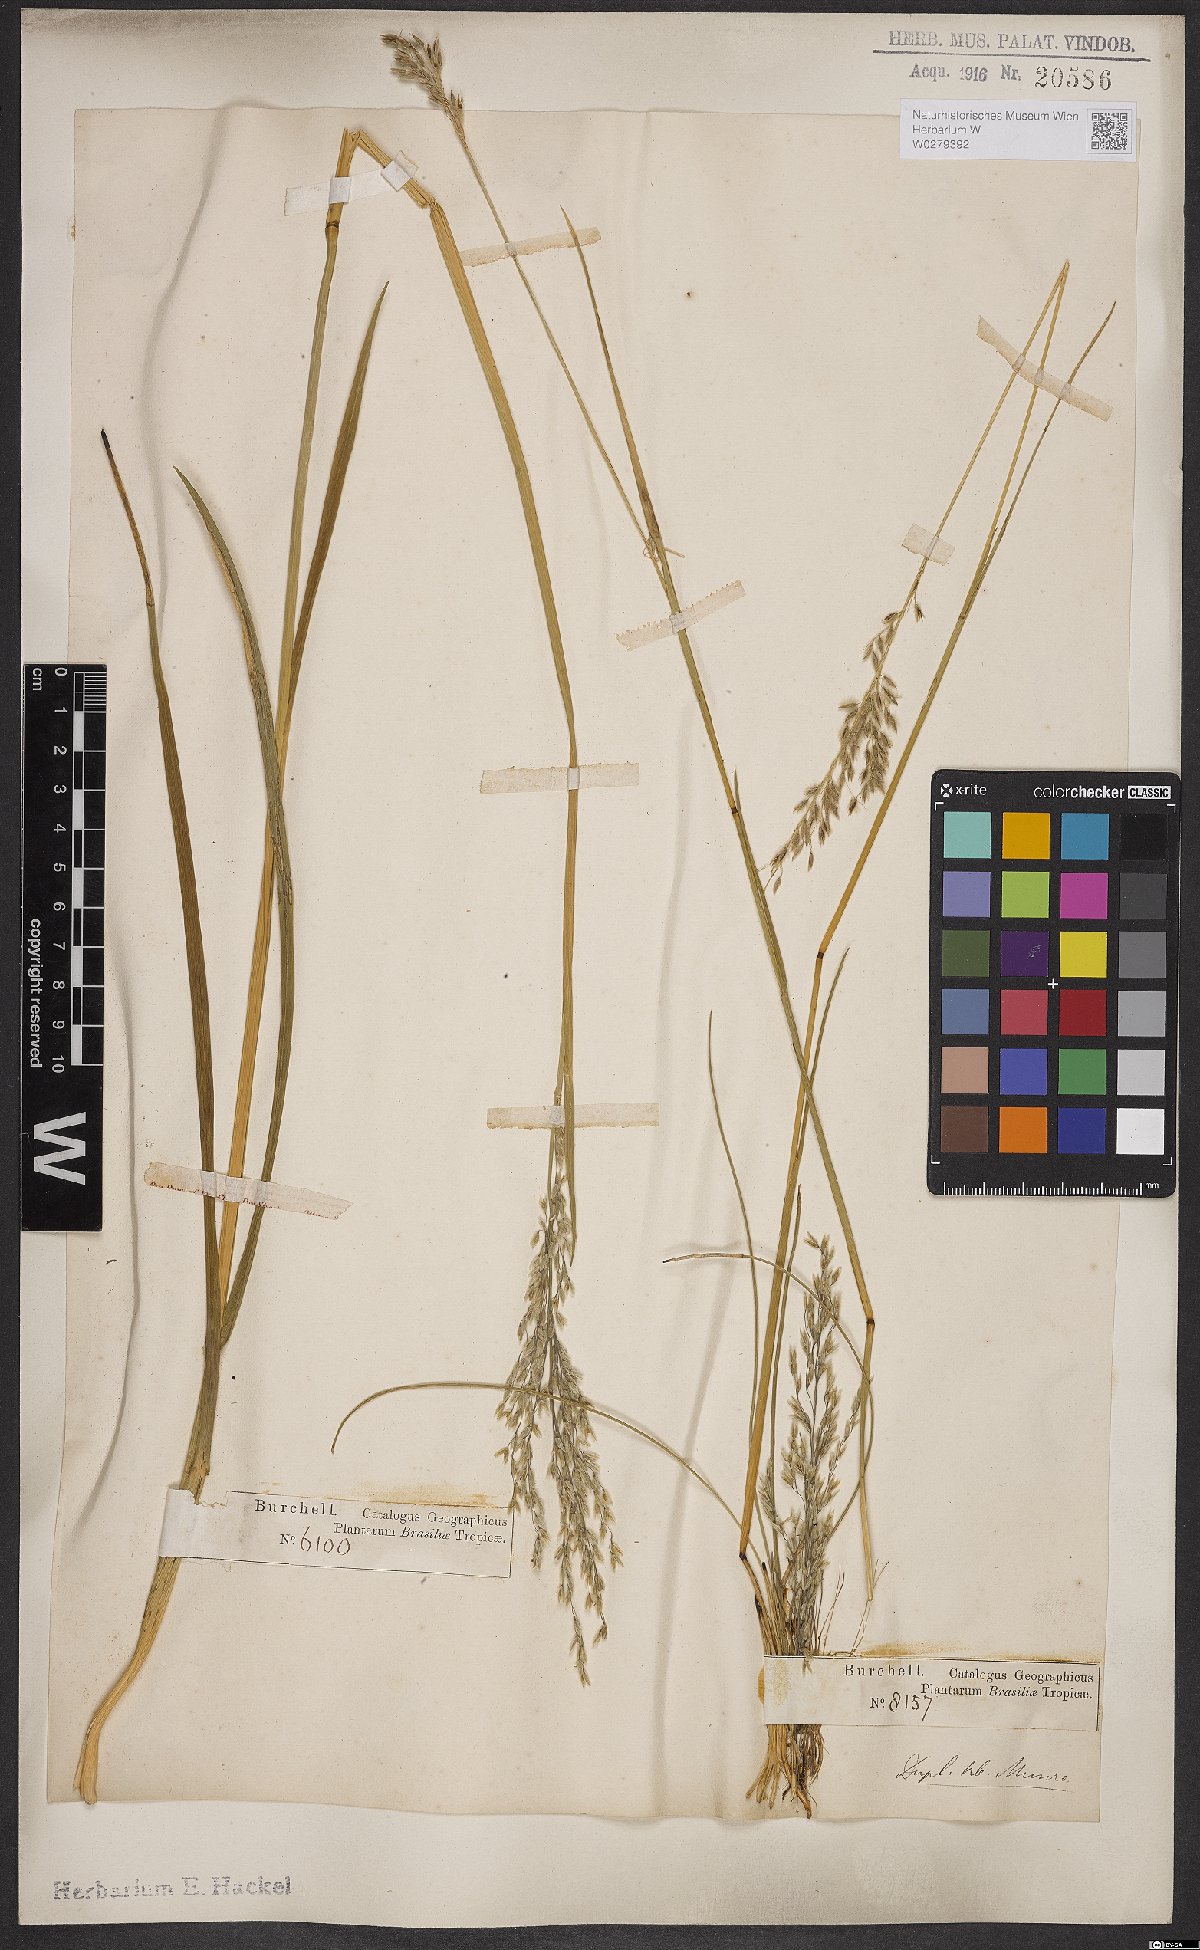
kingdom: Plantae
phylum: Tracheophyta
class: Liliopsida
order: Poales
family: Poaceae
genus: Anthaenantia
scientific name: Anthaenantia lanata
